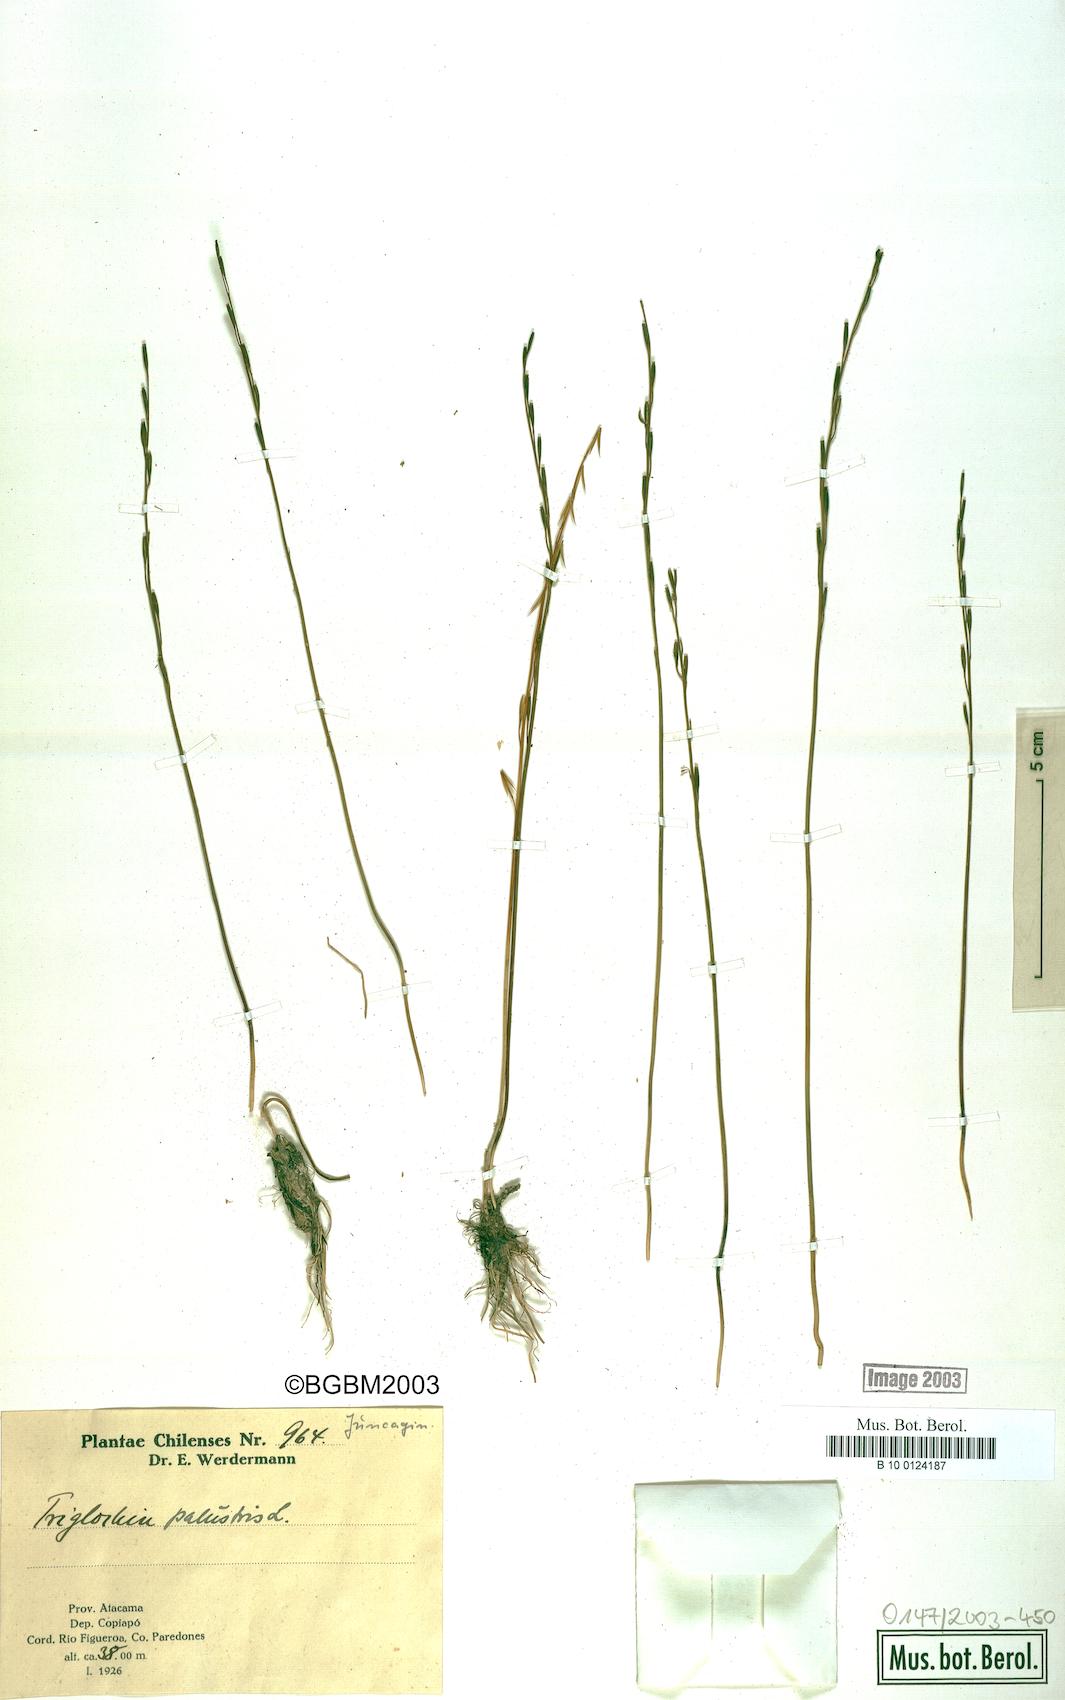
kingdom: Plantae
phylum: Tracheophyta
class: Liliopsida
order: Alismatales
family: Juncaginaceae
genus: Triglochin
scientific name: Triglochin palustris
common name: Marsh arrowgrass
